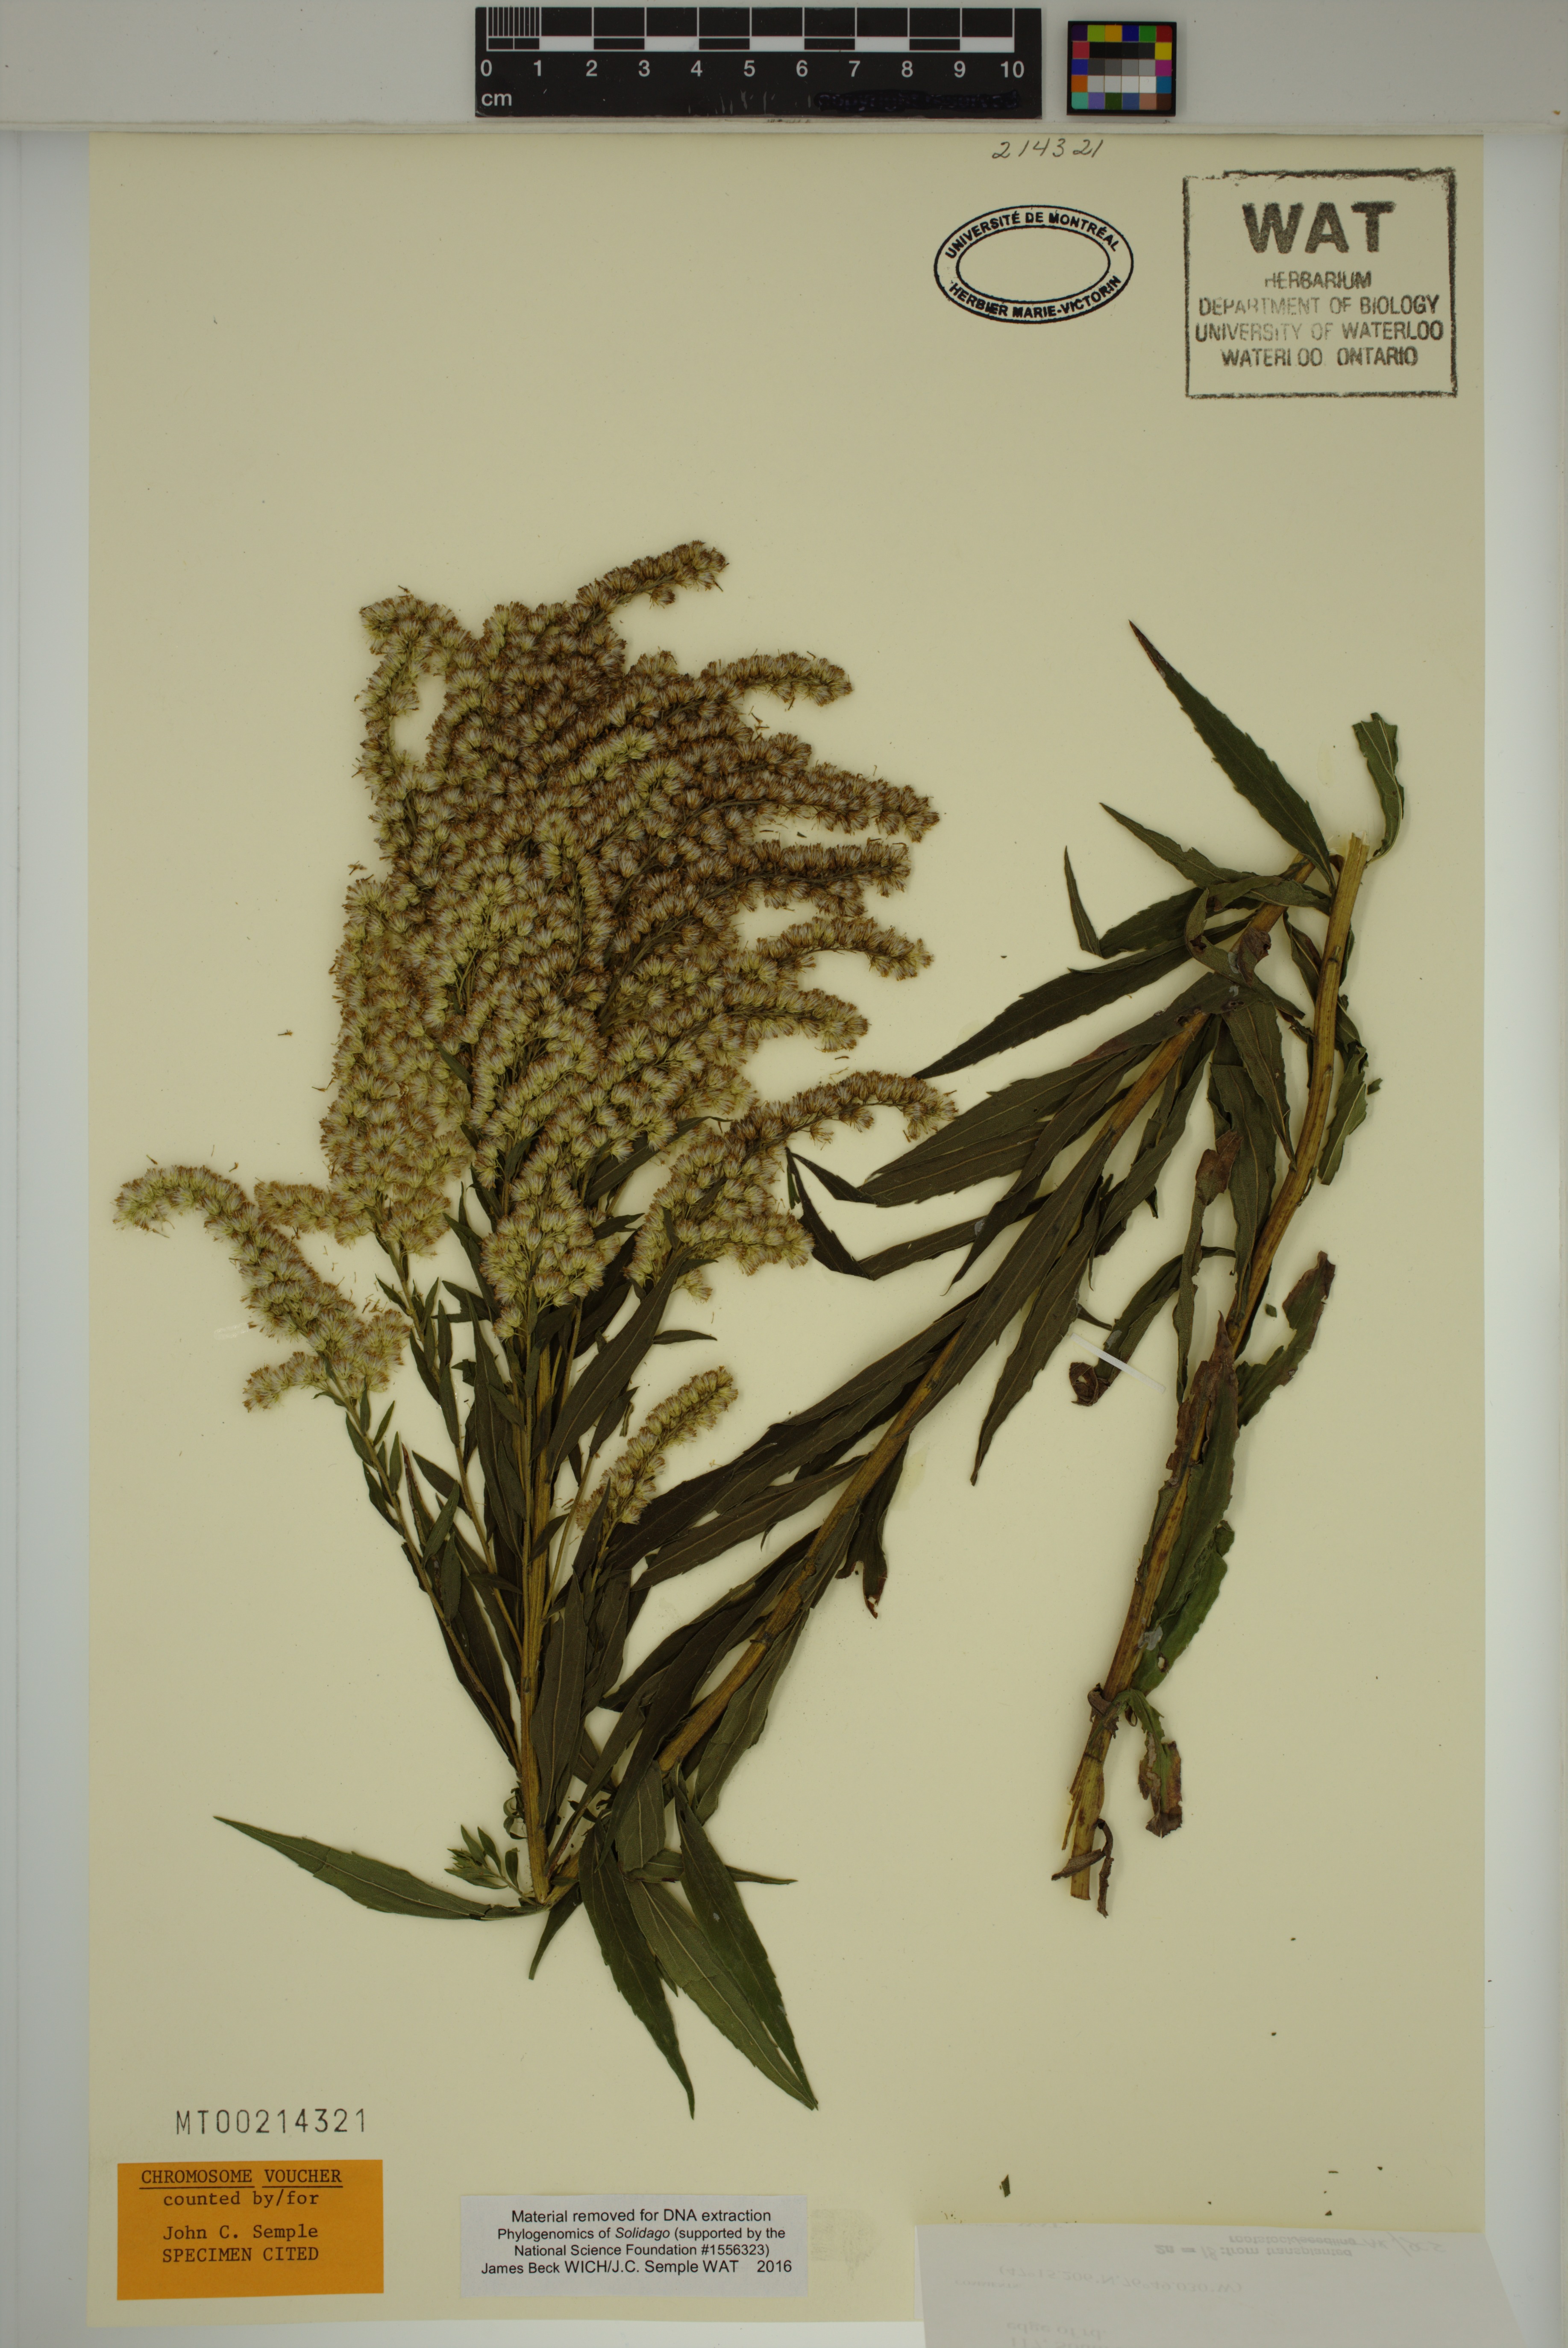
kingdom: Plantae
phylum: Tracheophyta
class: Magnoliopsida
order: Asterales
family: Asteraceae
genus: Solidago
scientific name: Solidago fallax
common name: Big-toothed canada goldenrod
